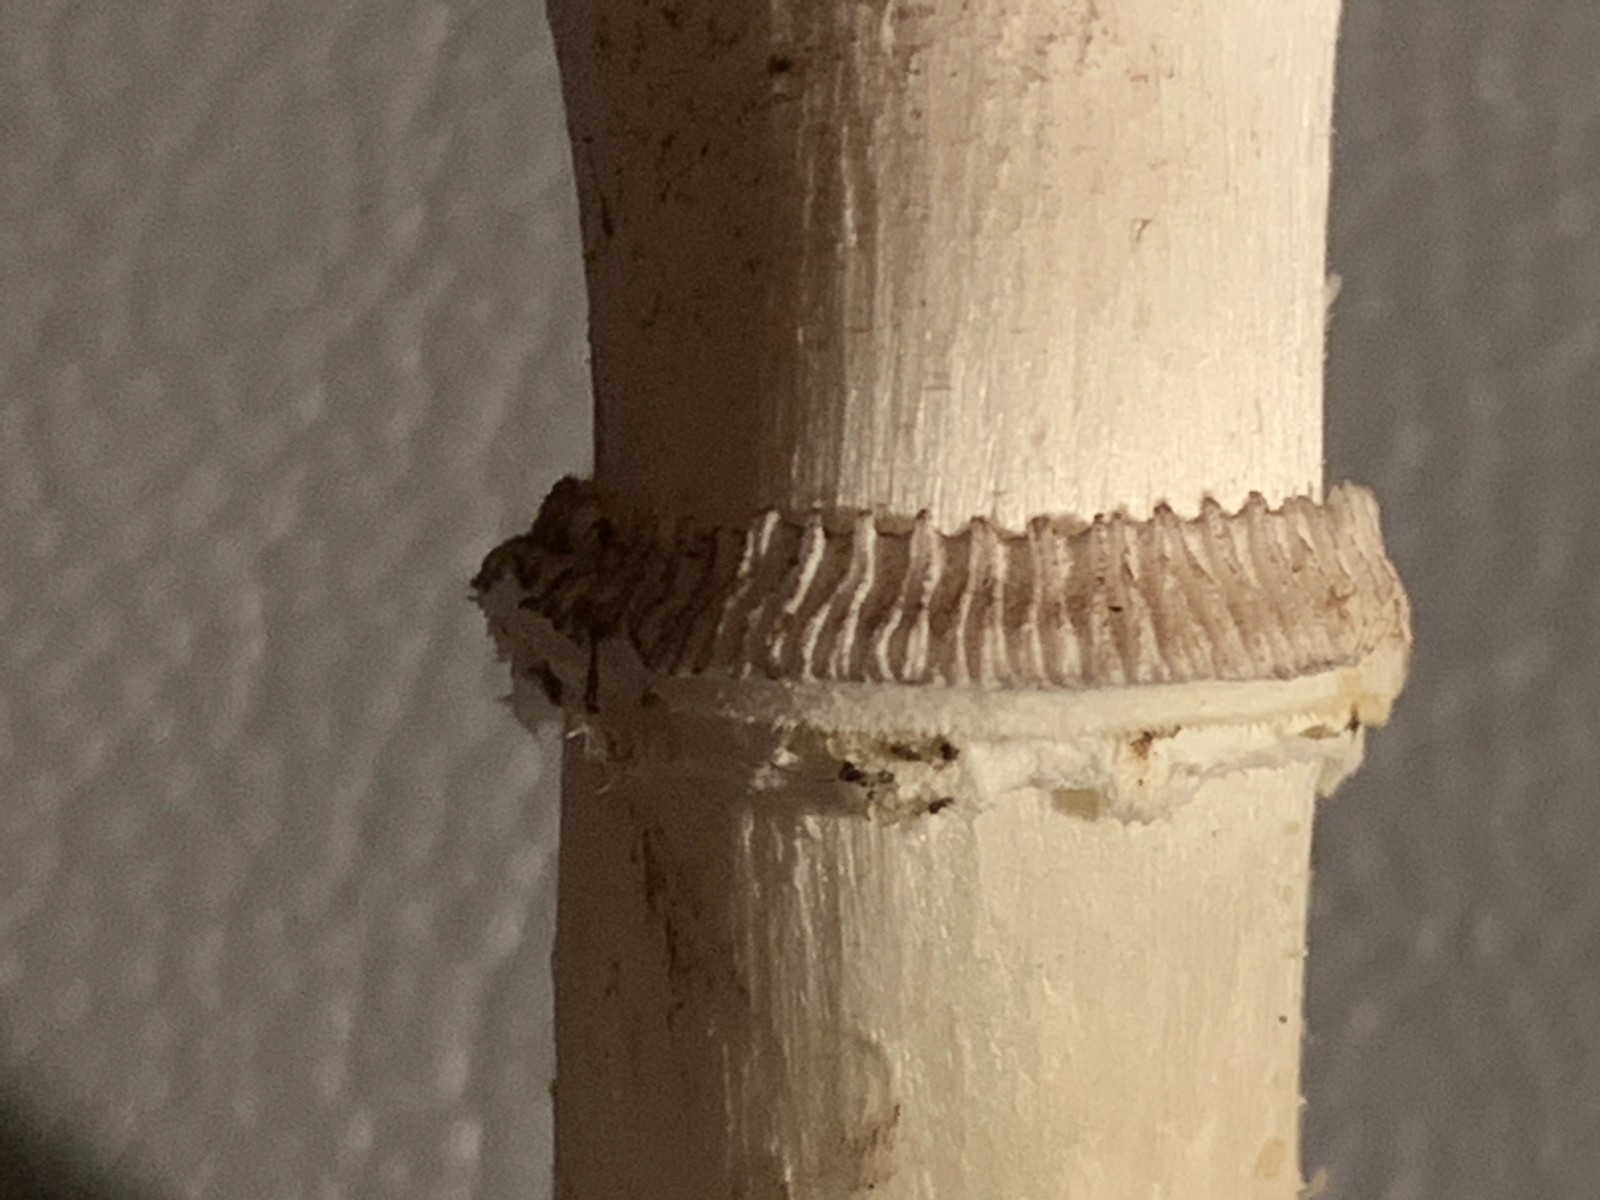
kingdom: Fungi
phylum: Basidiomycota
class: Agaricomycetes
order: Agaricales
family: Hymenogastraceae
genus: Psilocybe
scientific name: Psilocybe coronilla
